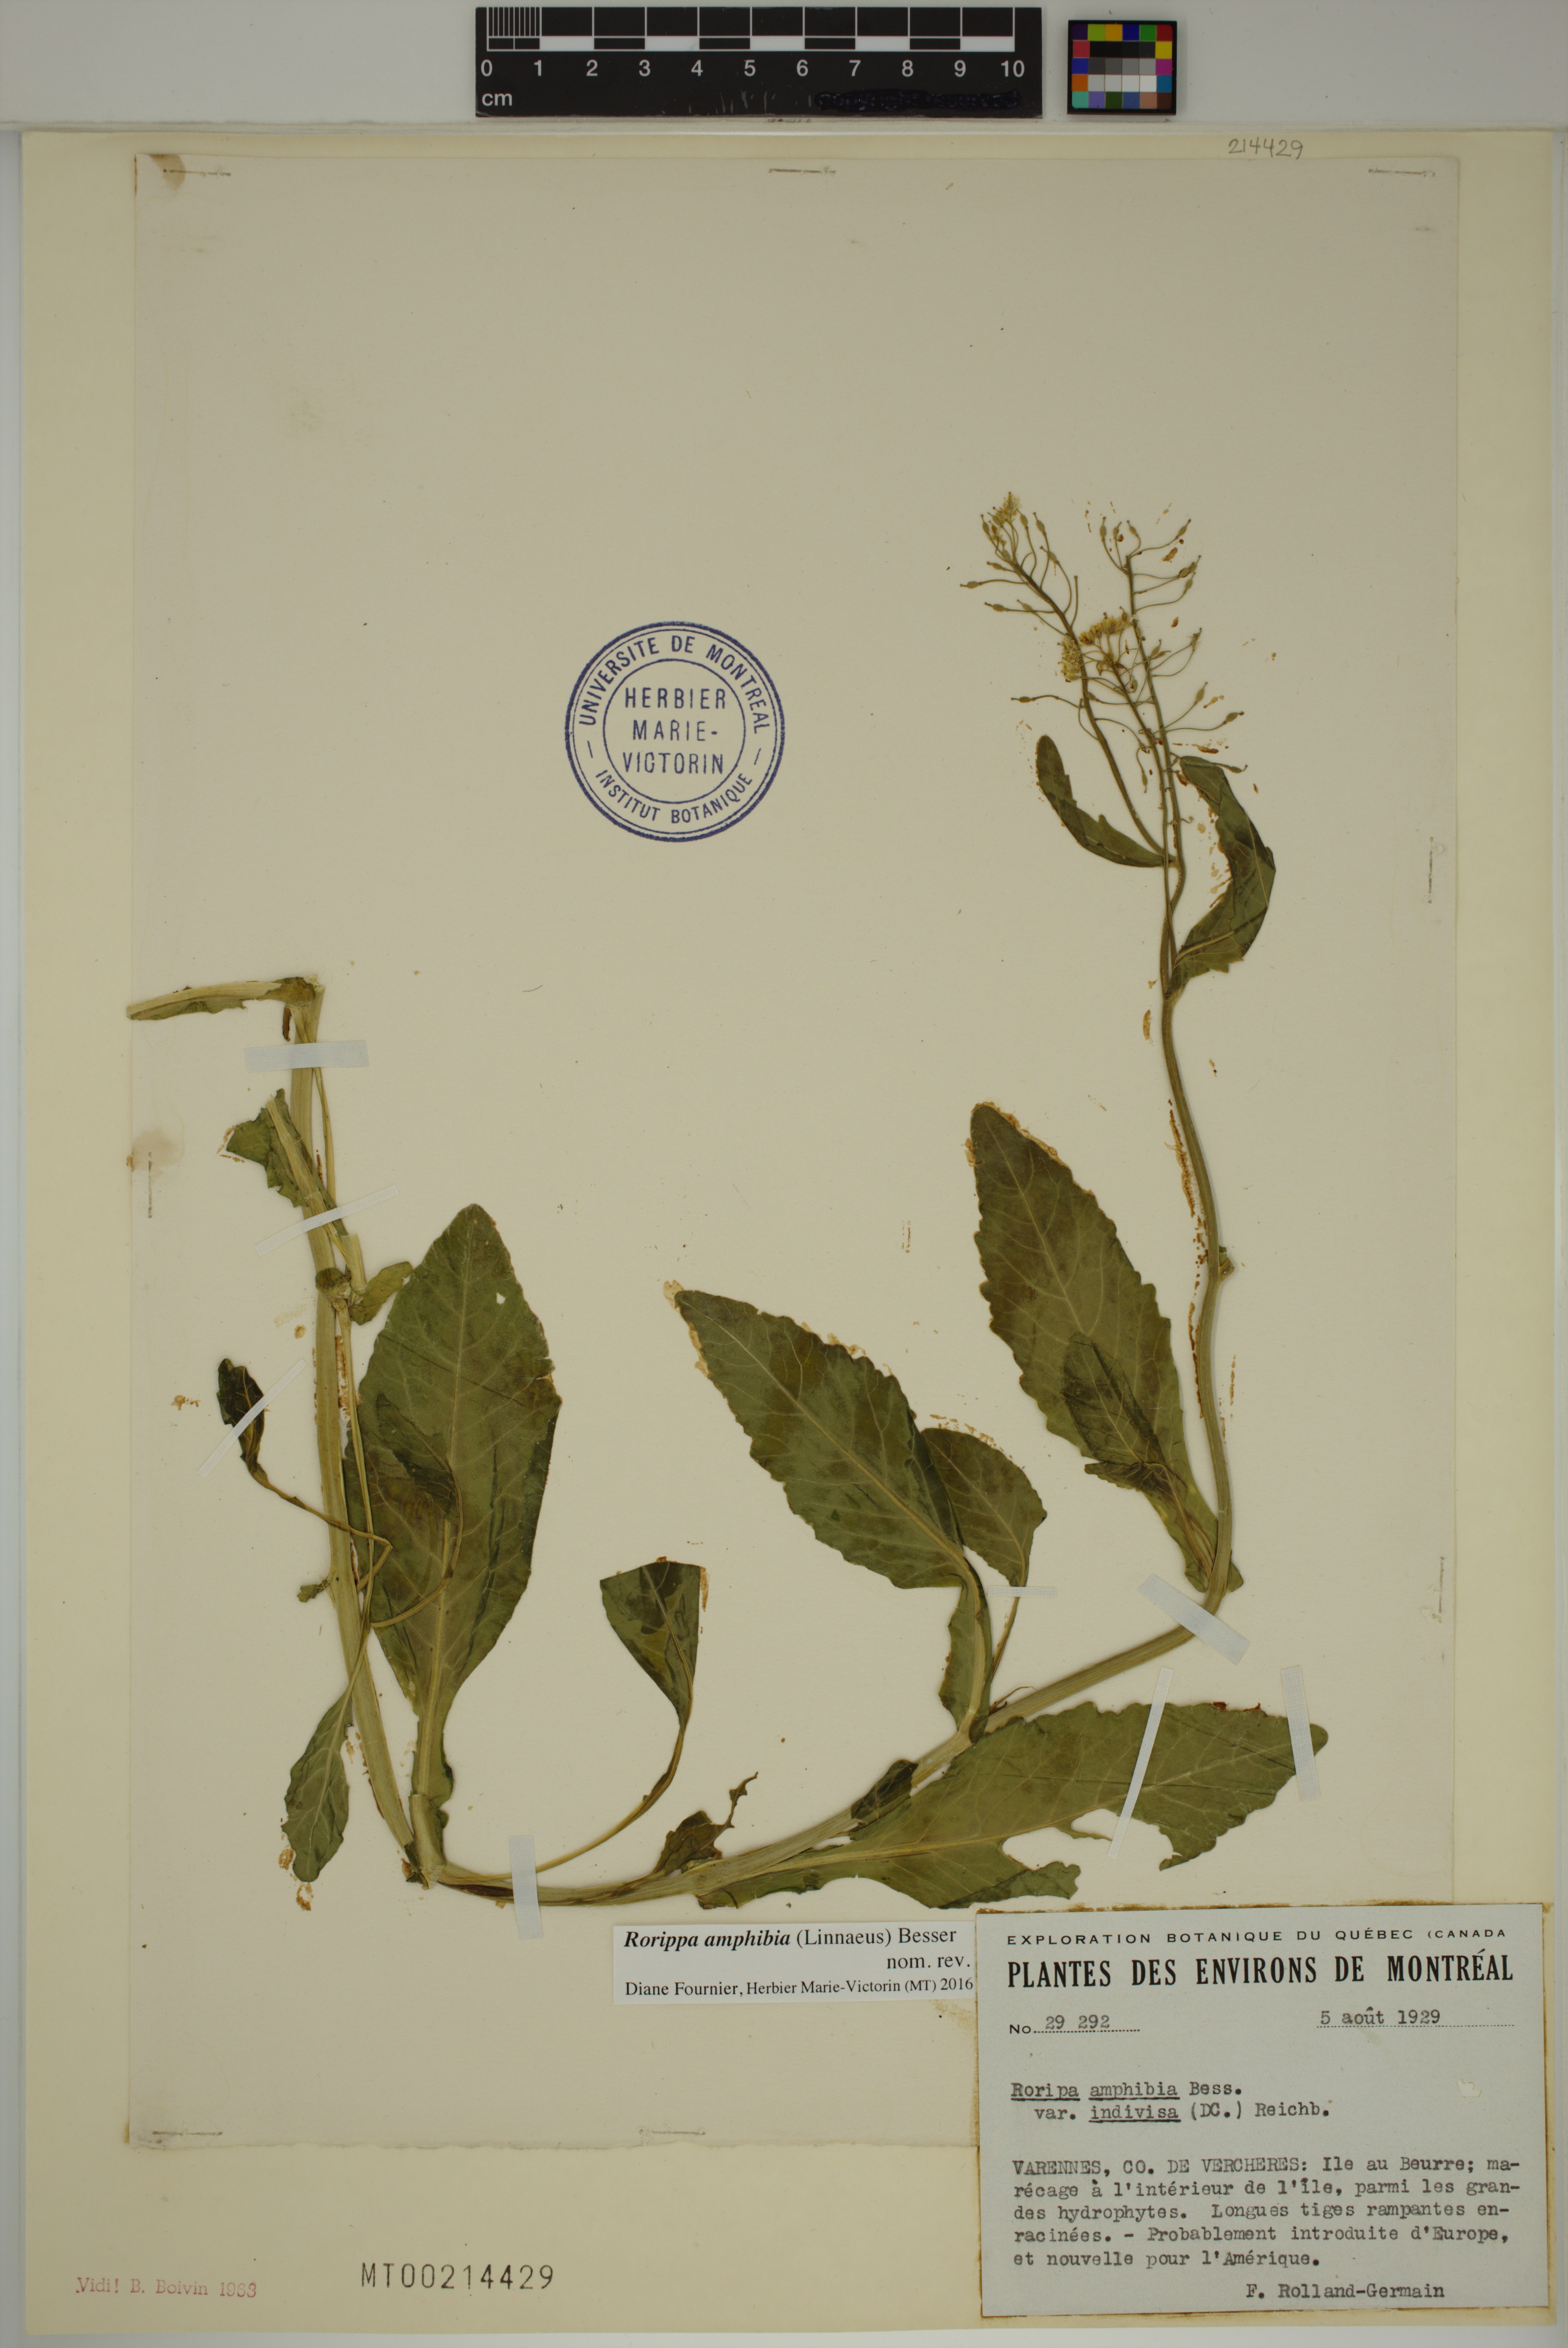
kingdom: Plantae
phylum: Tracheophyta
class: Magnoliopsida
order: Brassicales
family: Brassicaceae
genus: Rorippa
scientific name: Rorippa amphibia
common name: Great yellow-cress
